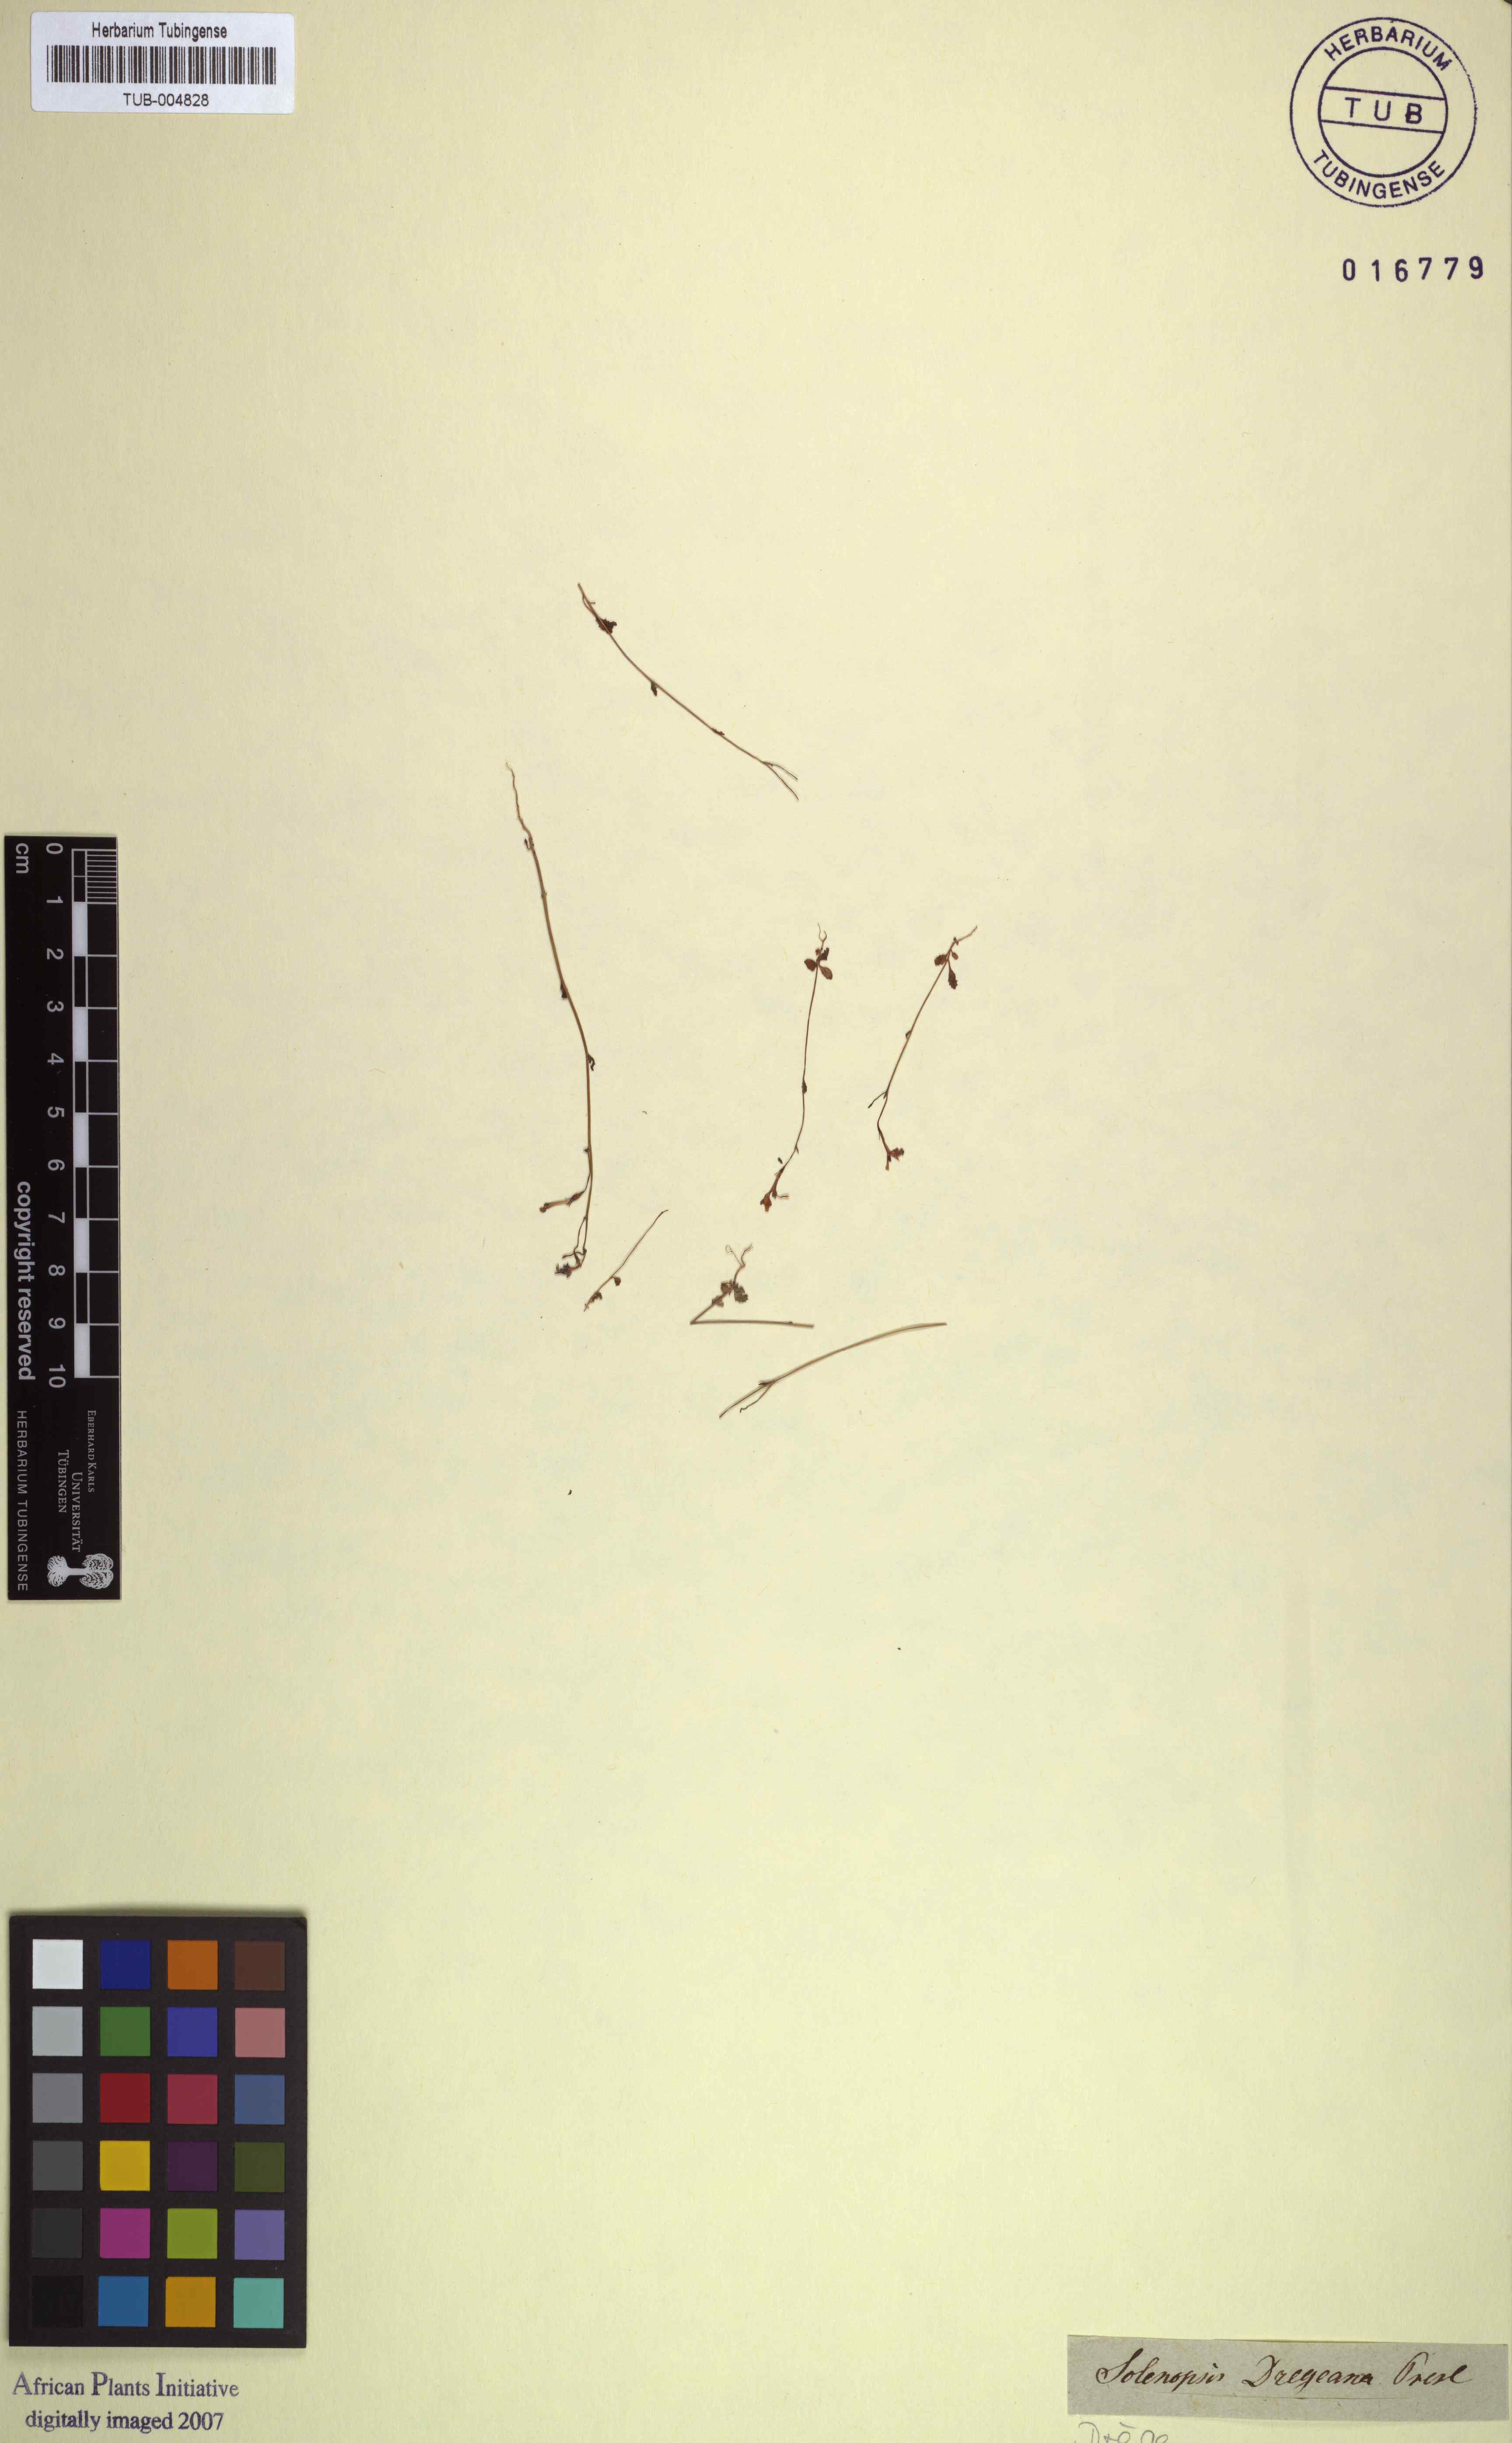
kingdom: Plantae
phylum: Tracheophyta
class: Magnoliopsida
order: Asterales
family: Campanulaceae
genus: Wimmerella
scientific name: Wimmerella bifida
